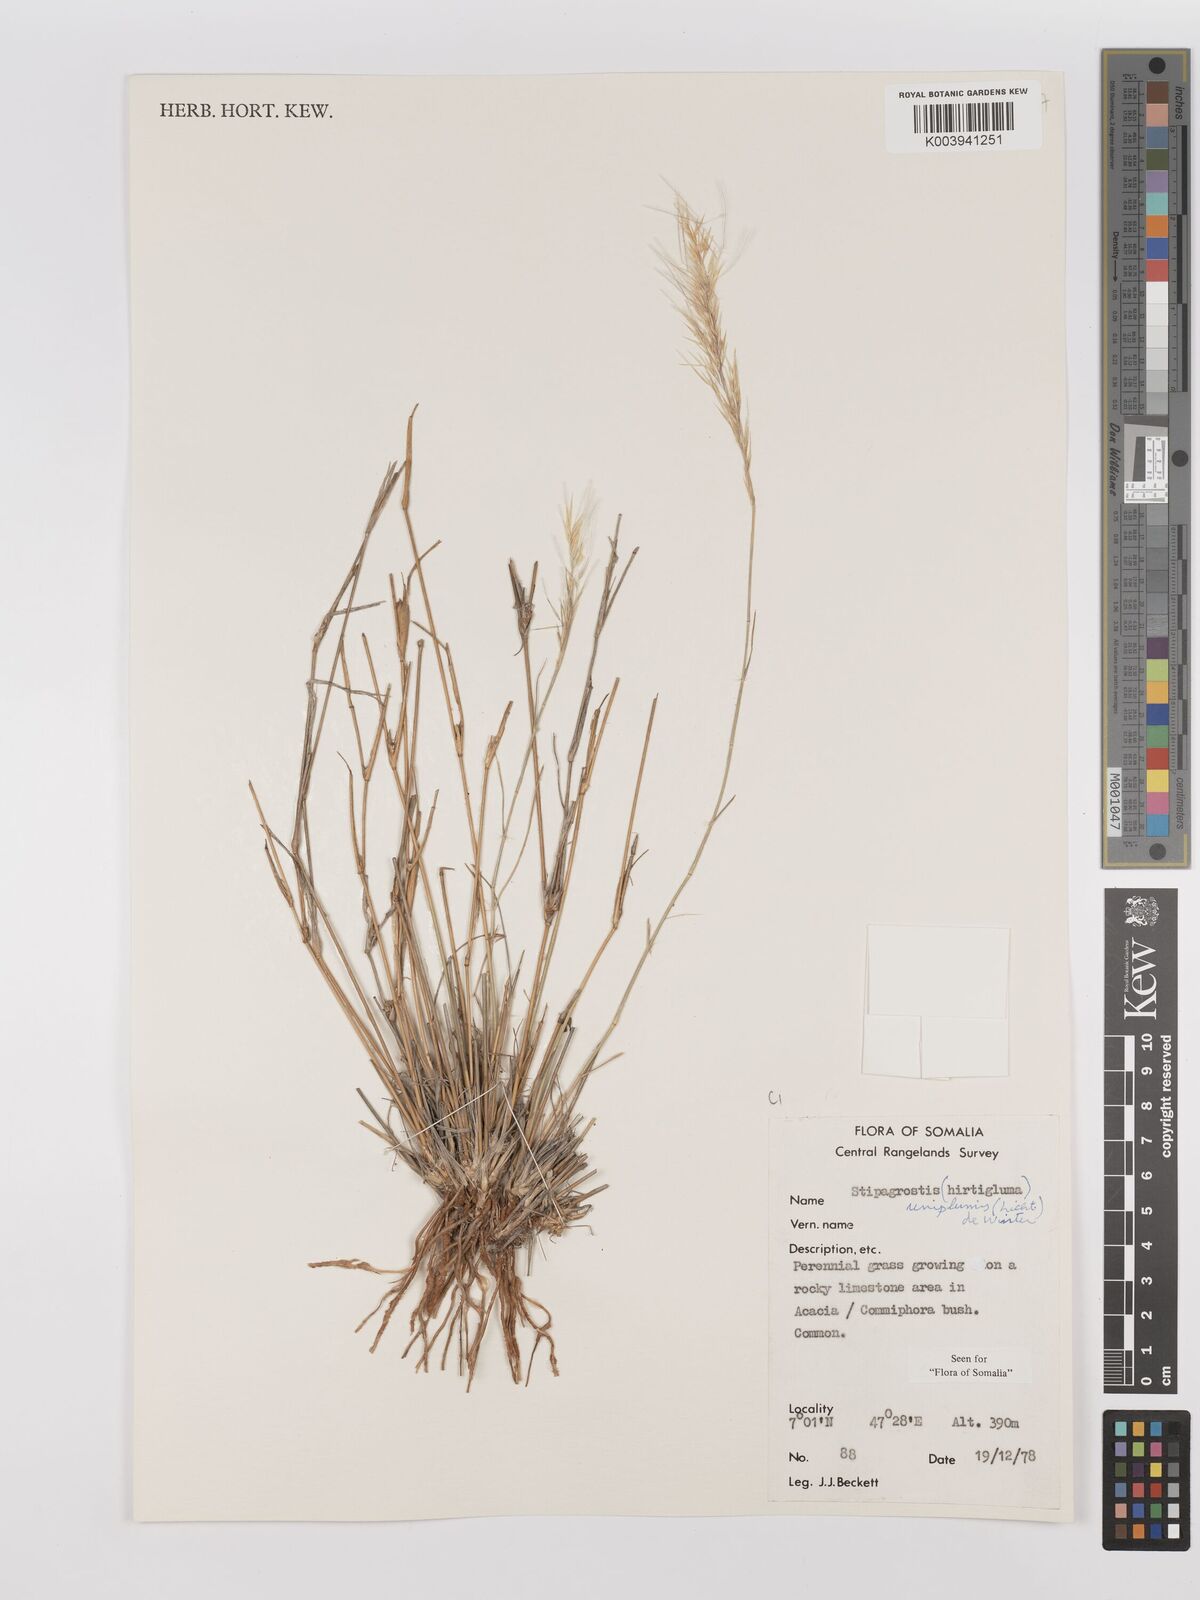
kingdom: Plantae
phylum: Tracheophyta
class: Liliopsida
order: Poales
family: Poaceae
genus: Stipagrostis
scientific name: Stipagrostis uniplumis
